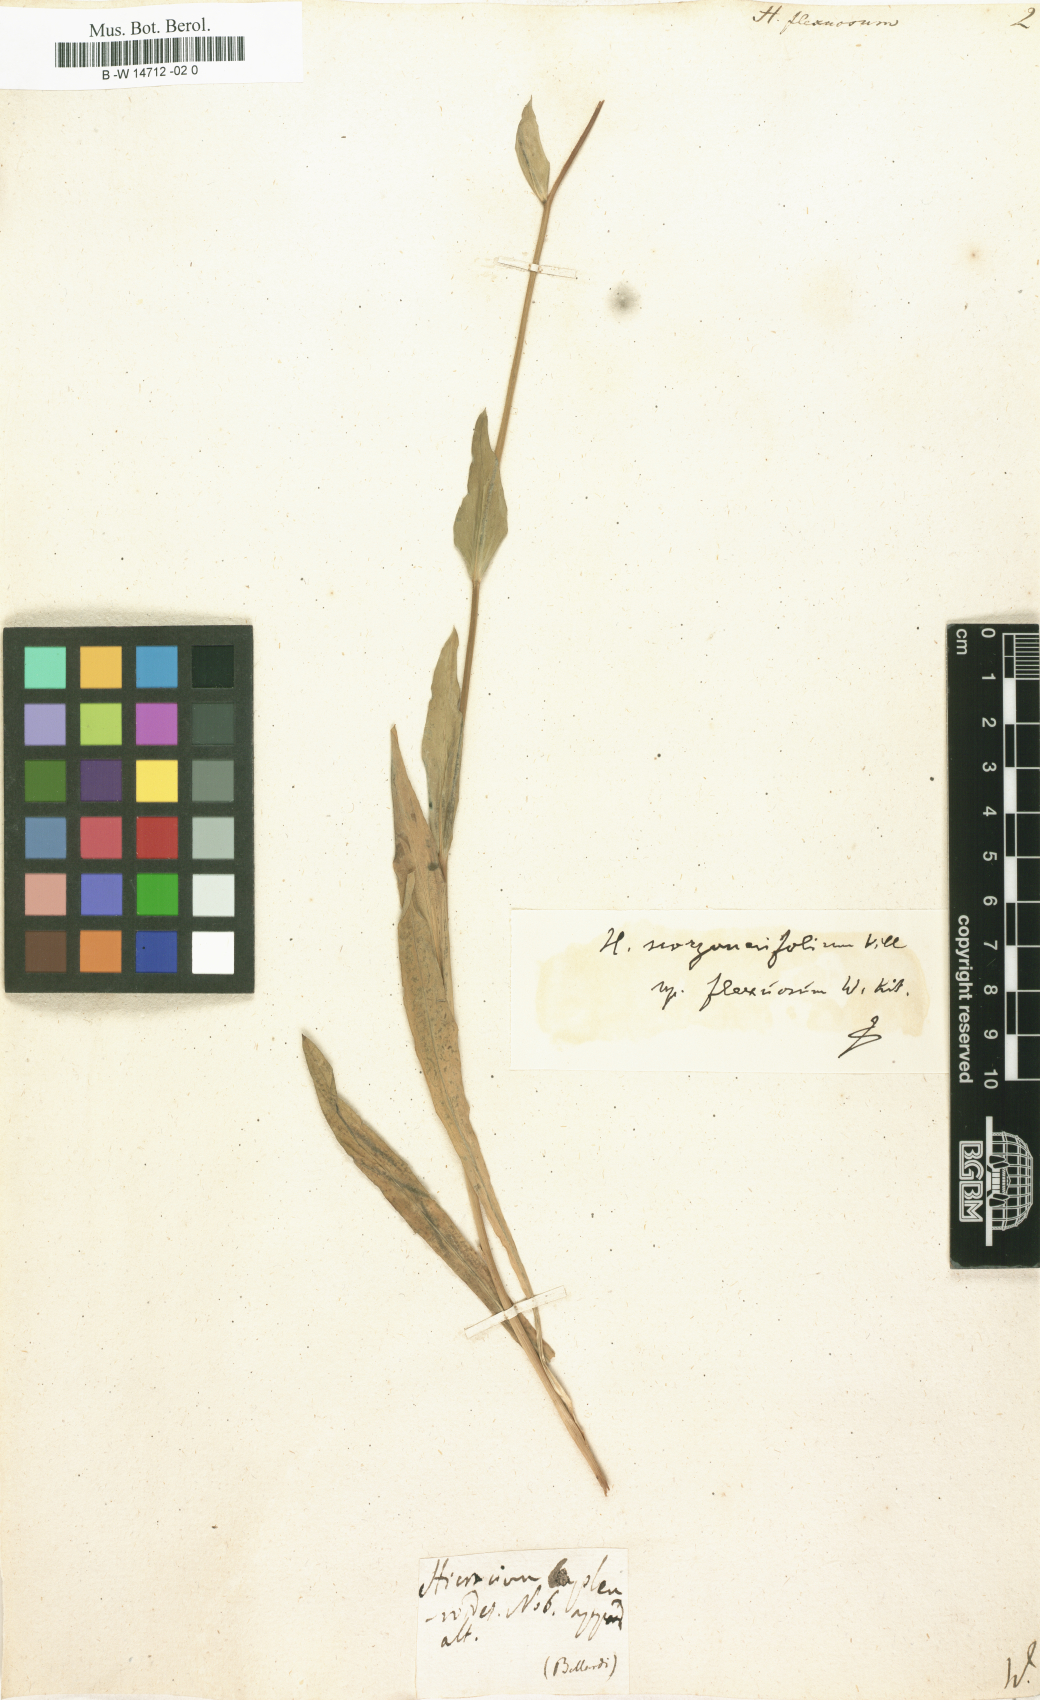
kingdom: Plantae
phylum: Tracheophyta
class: Magnoliopsida
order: Asterales
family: Asteraceae
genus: Hieracium
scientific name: Hieracium scorzonerifolium
